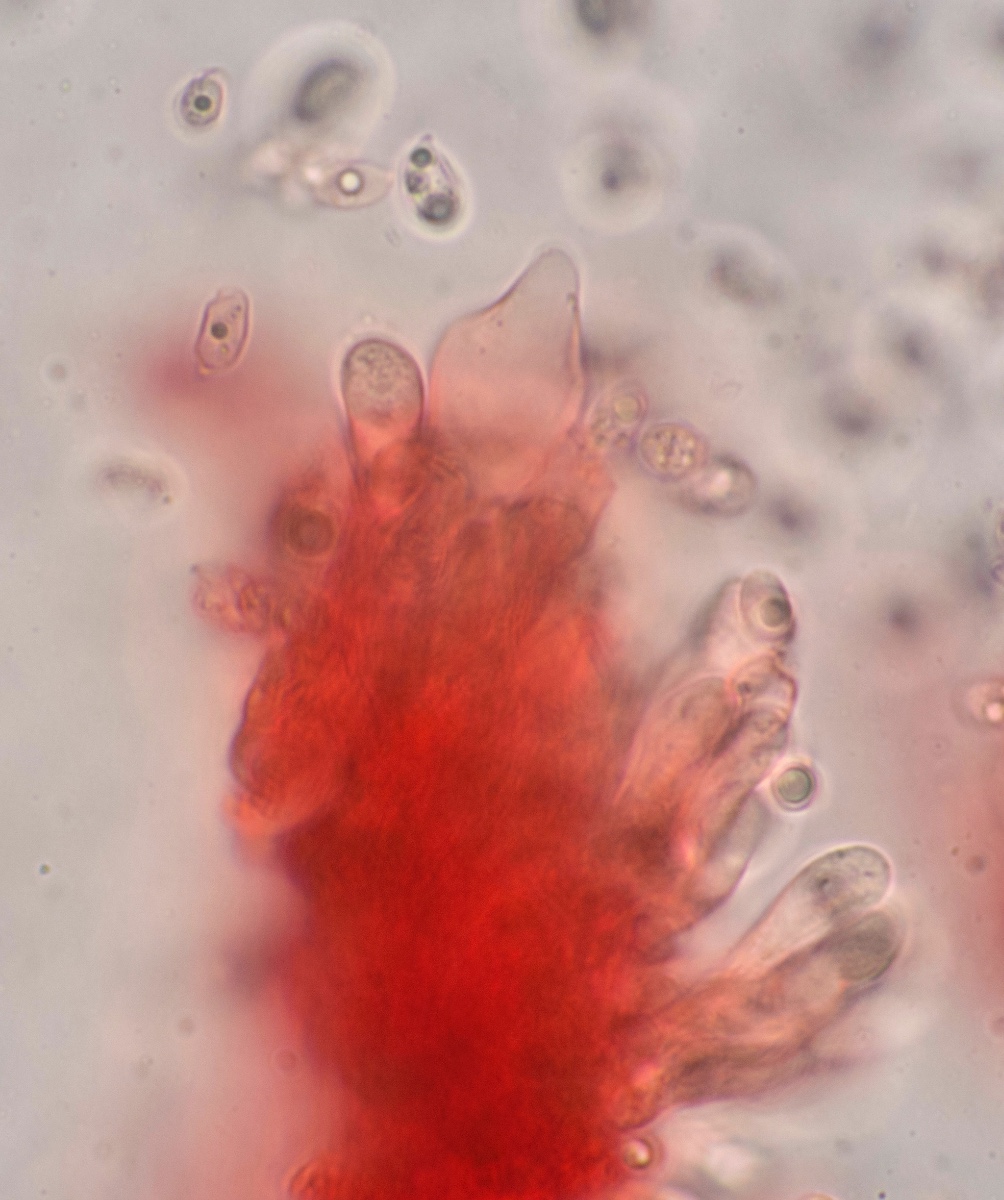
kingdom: Fungi
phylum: Basidiomycota
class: Agaricomycetes
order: Agaricales
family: Mycenaceae
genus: Mycena
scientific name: Mycena citrinomarginata
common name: gulægget huesvamp
